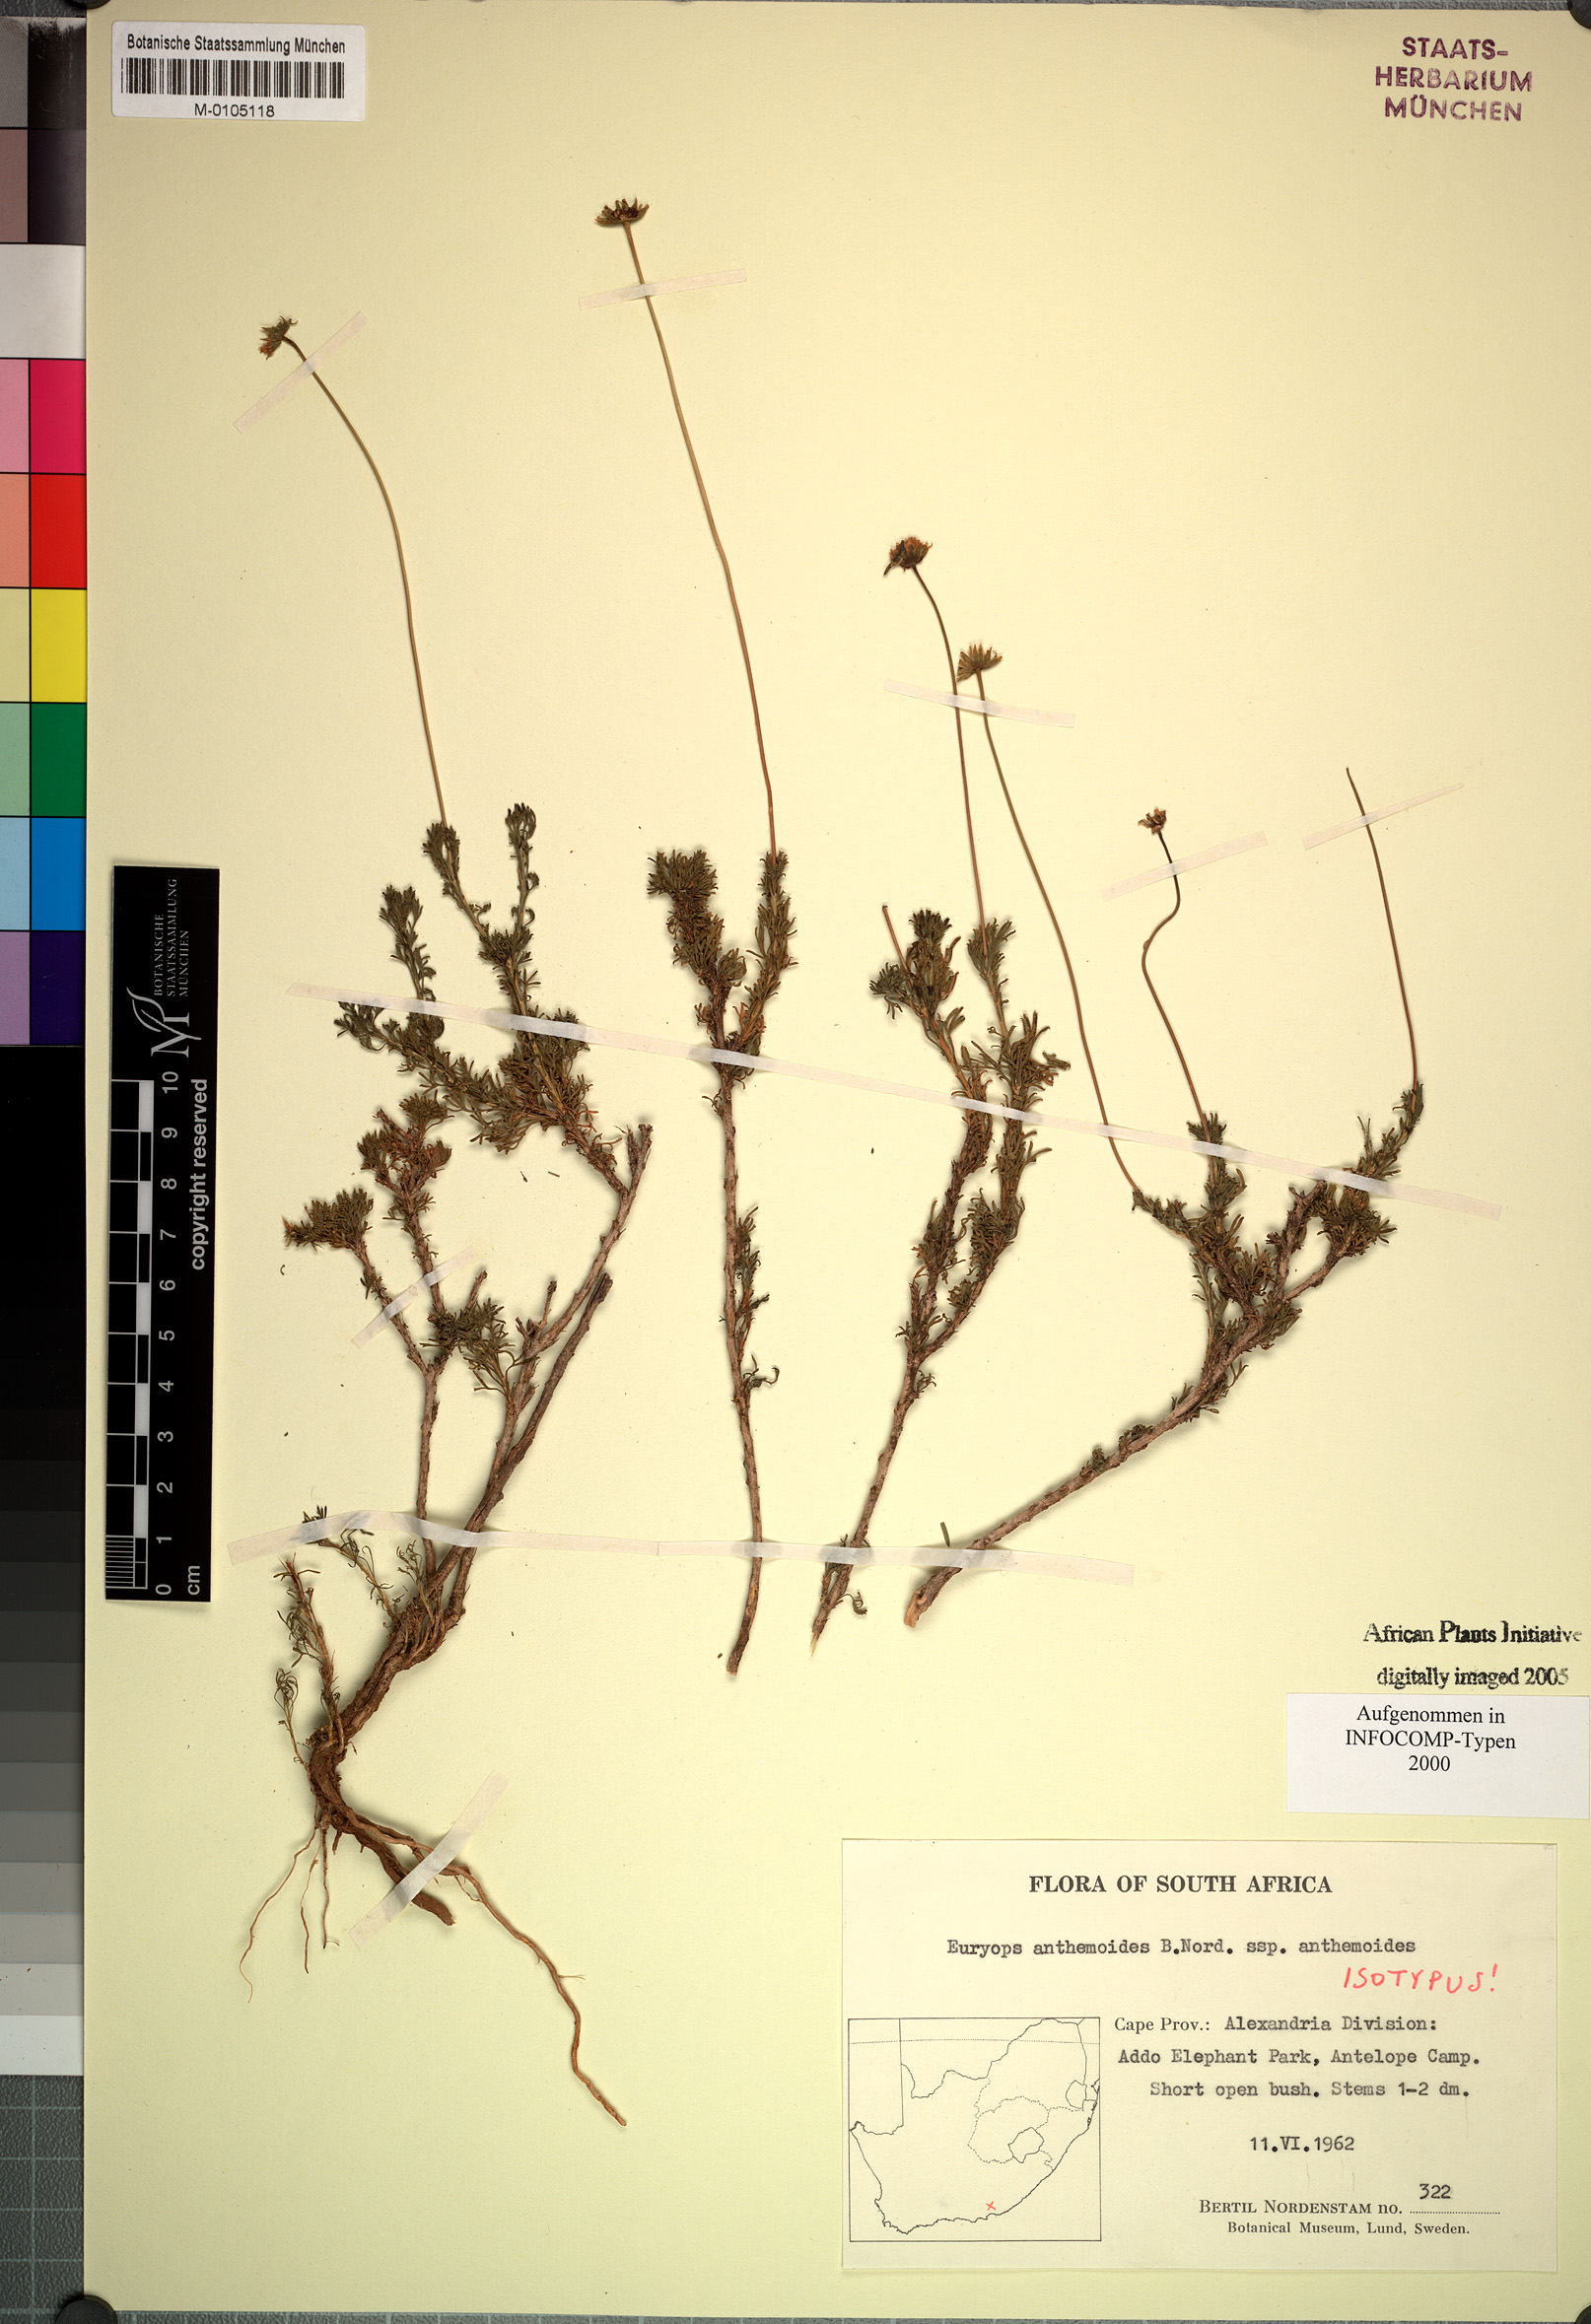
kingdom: Plantae
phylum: Tracheophyta
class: Magnoliopsida
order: Asterales
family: Asteraceae
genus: Euryops
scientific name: Euryops anthemoides
